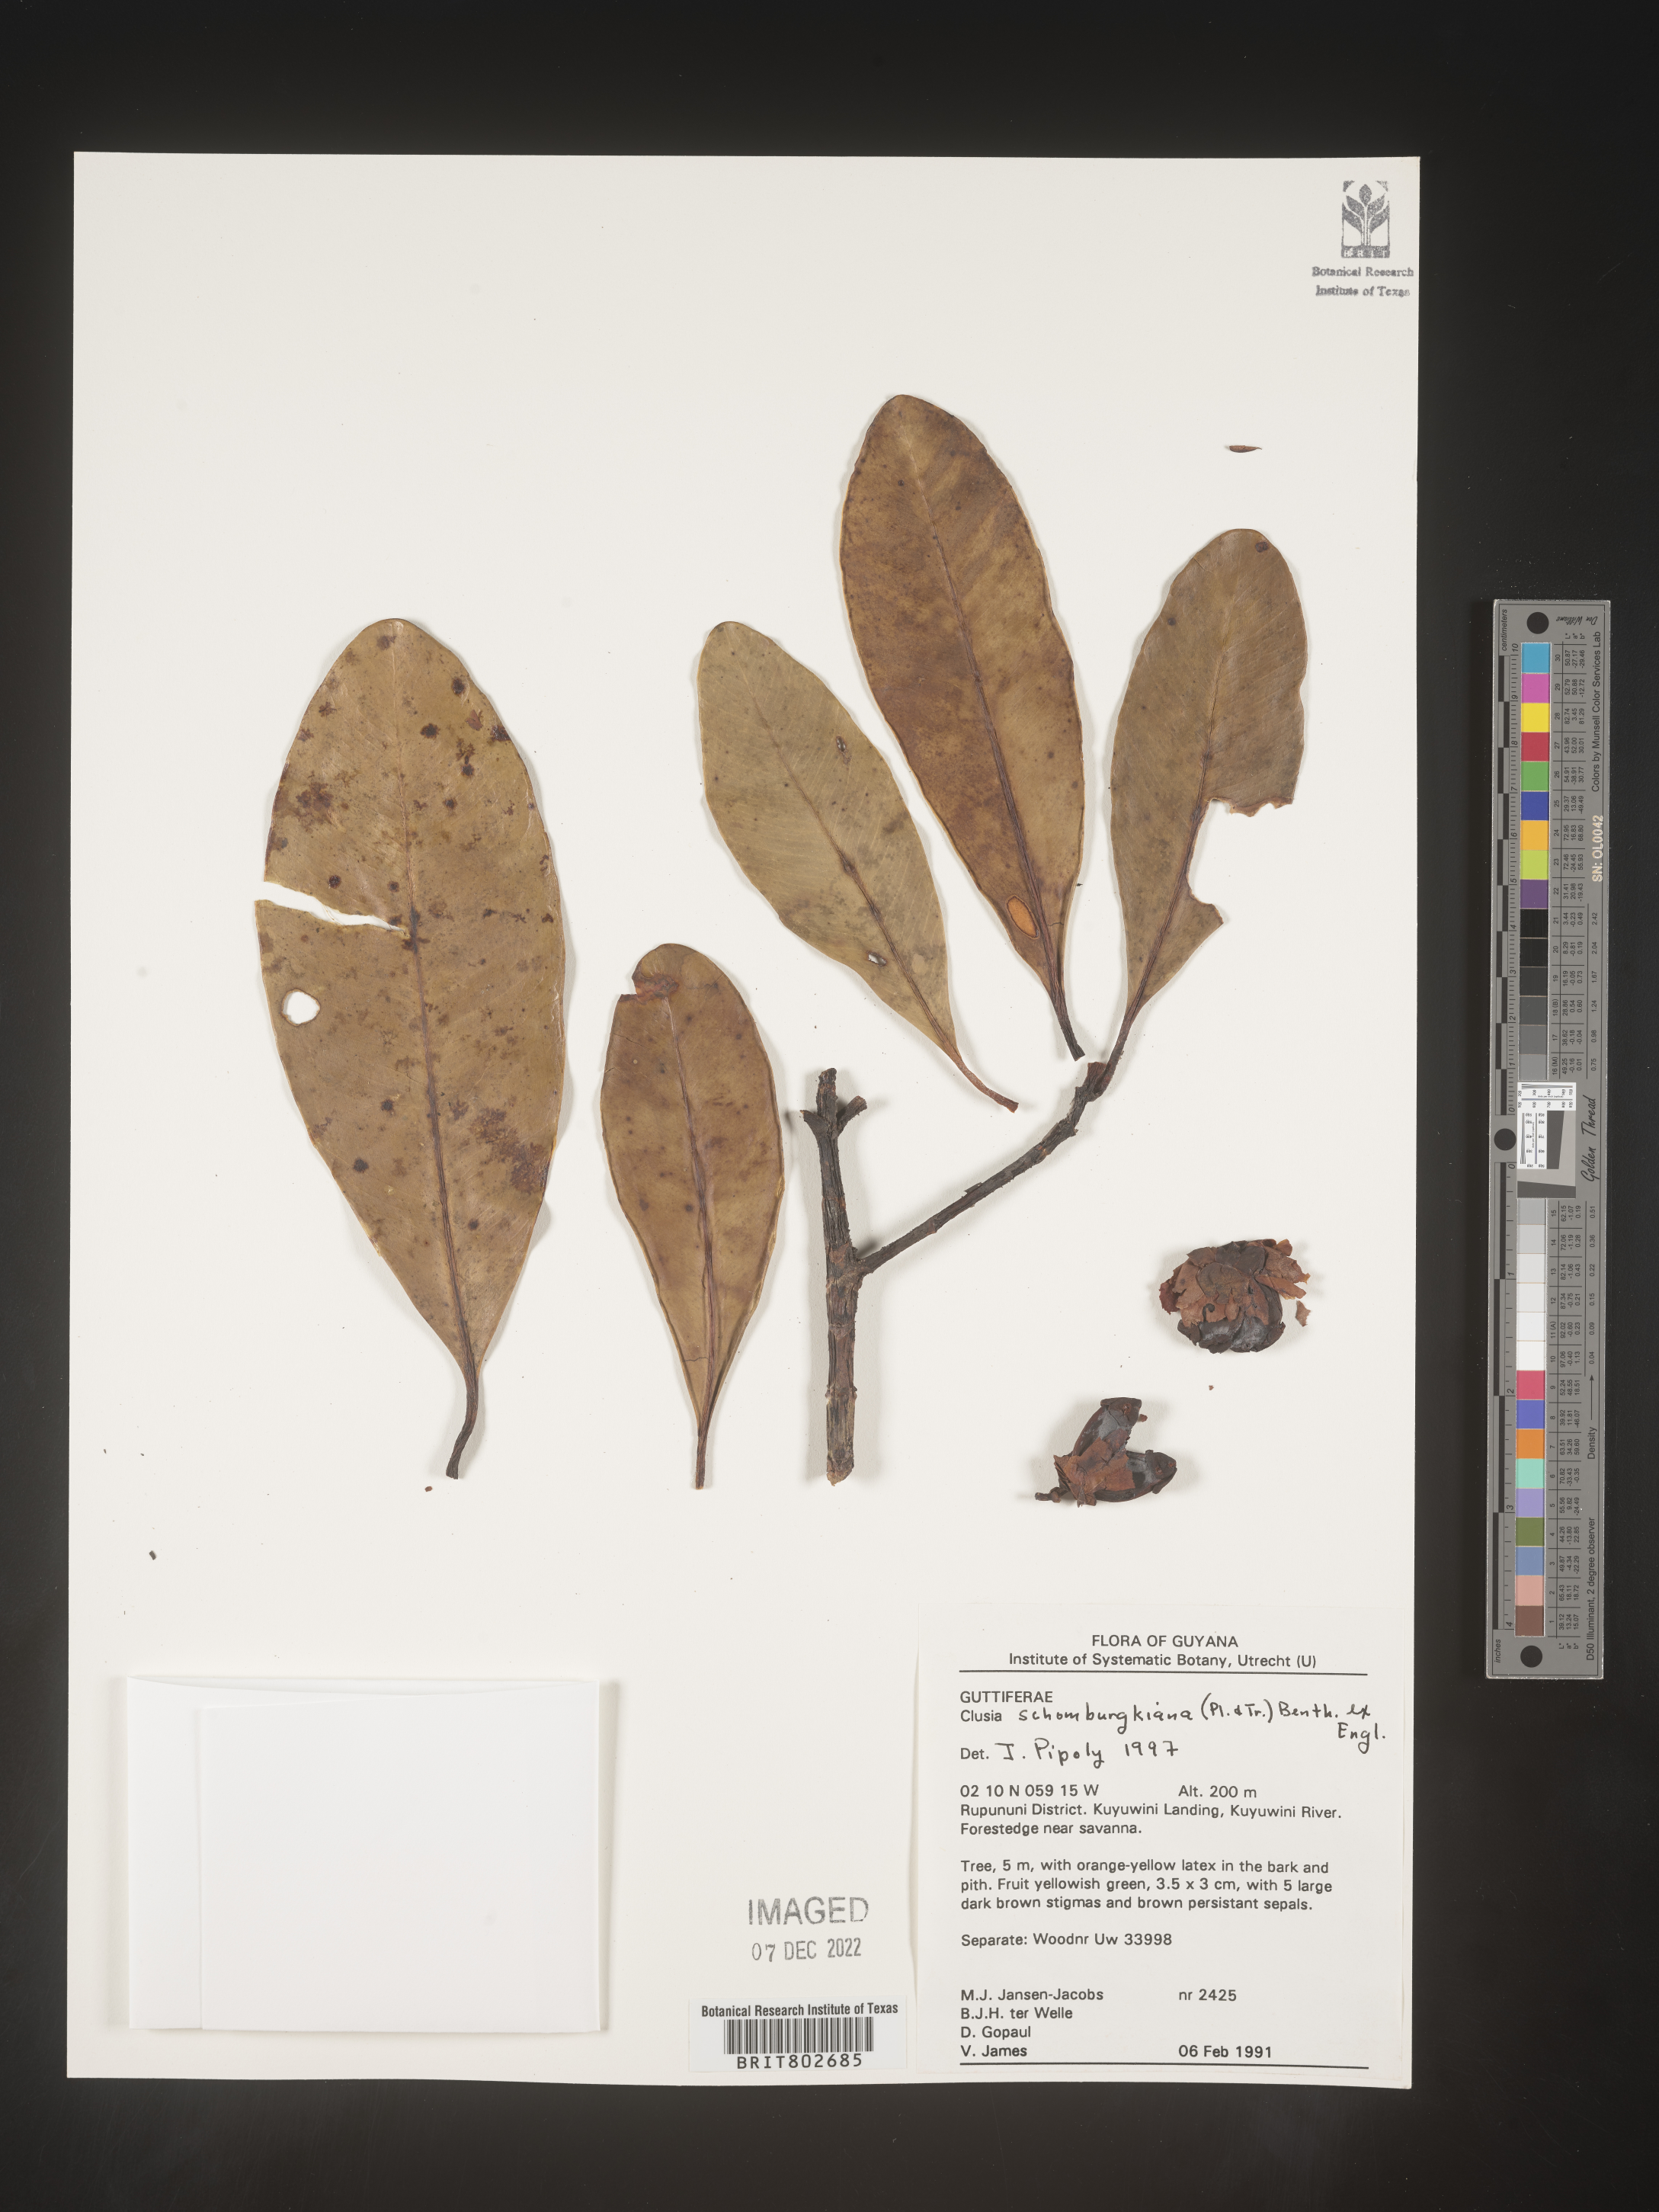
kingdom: Plantae
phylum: Tracheophyta
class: Magnoliopsida
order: Malpighiales
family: Clusiaceae
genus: Clusia
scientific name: Clusia schomburgkiana
